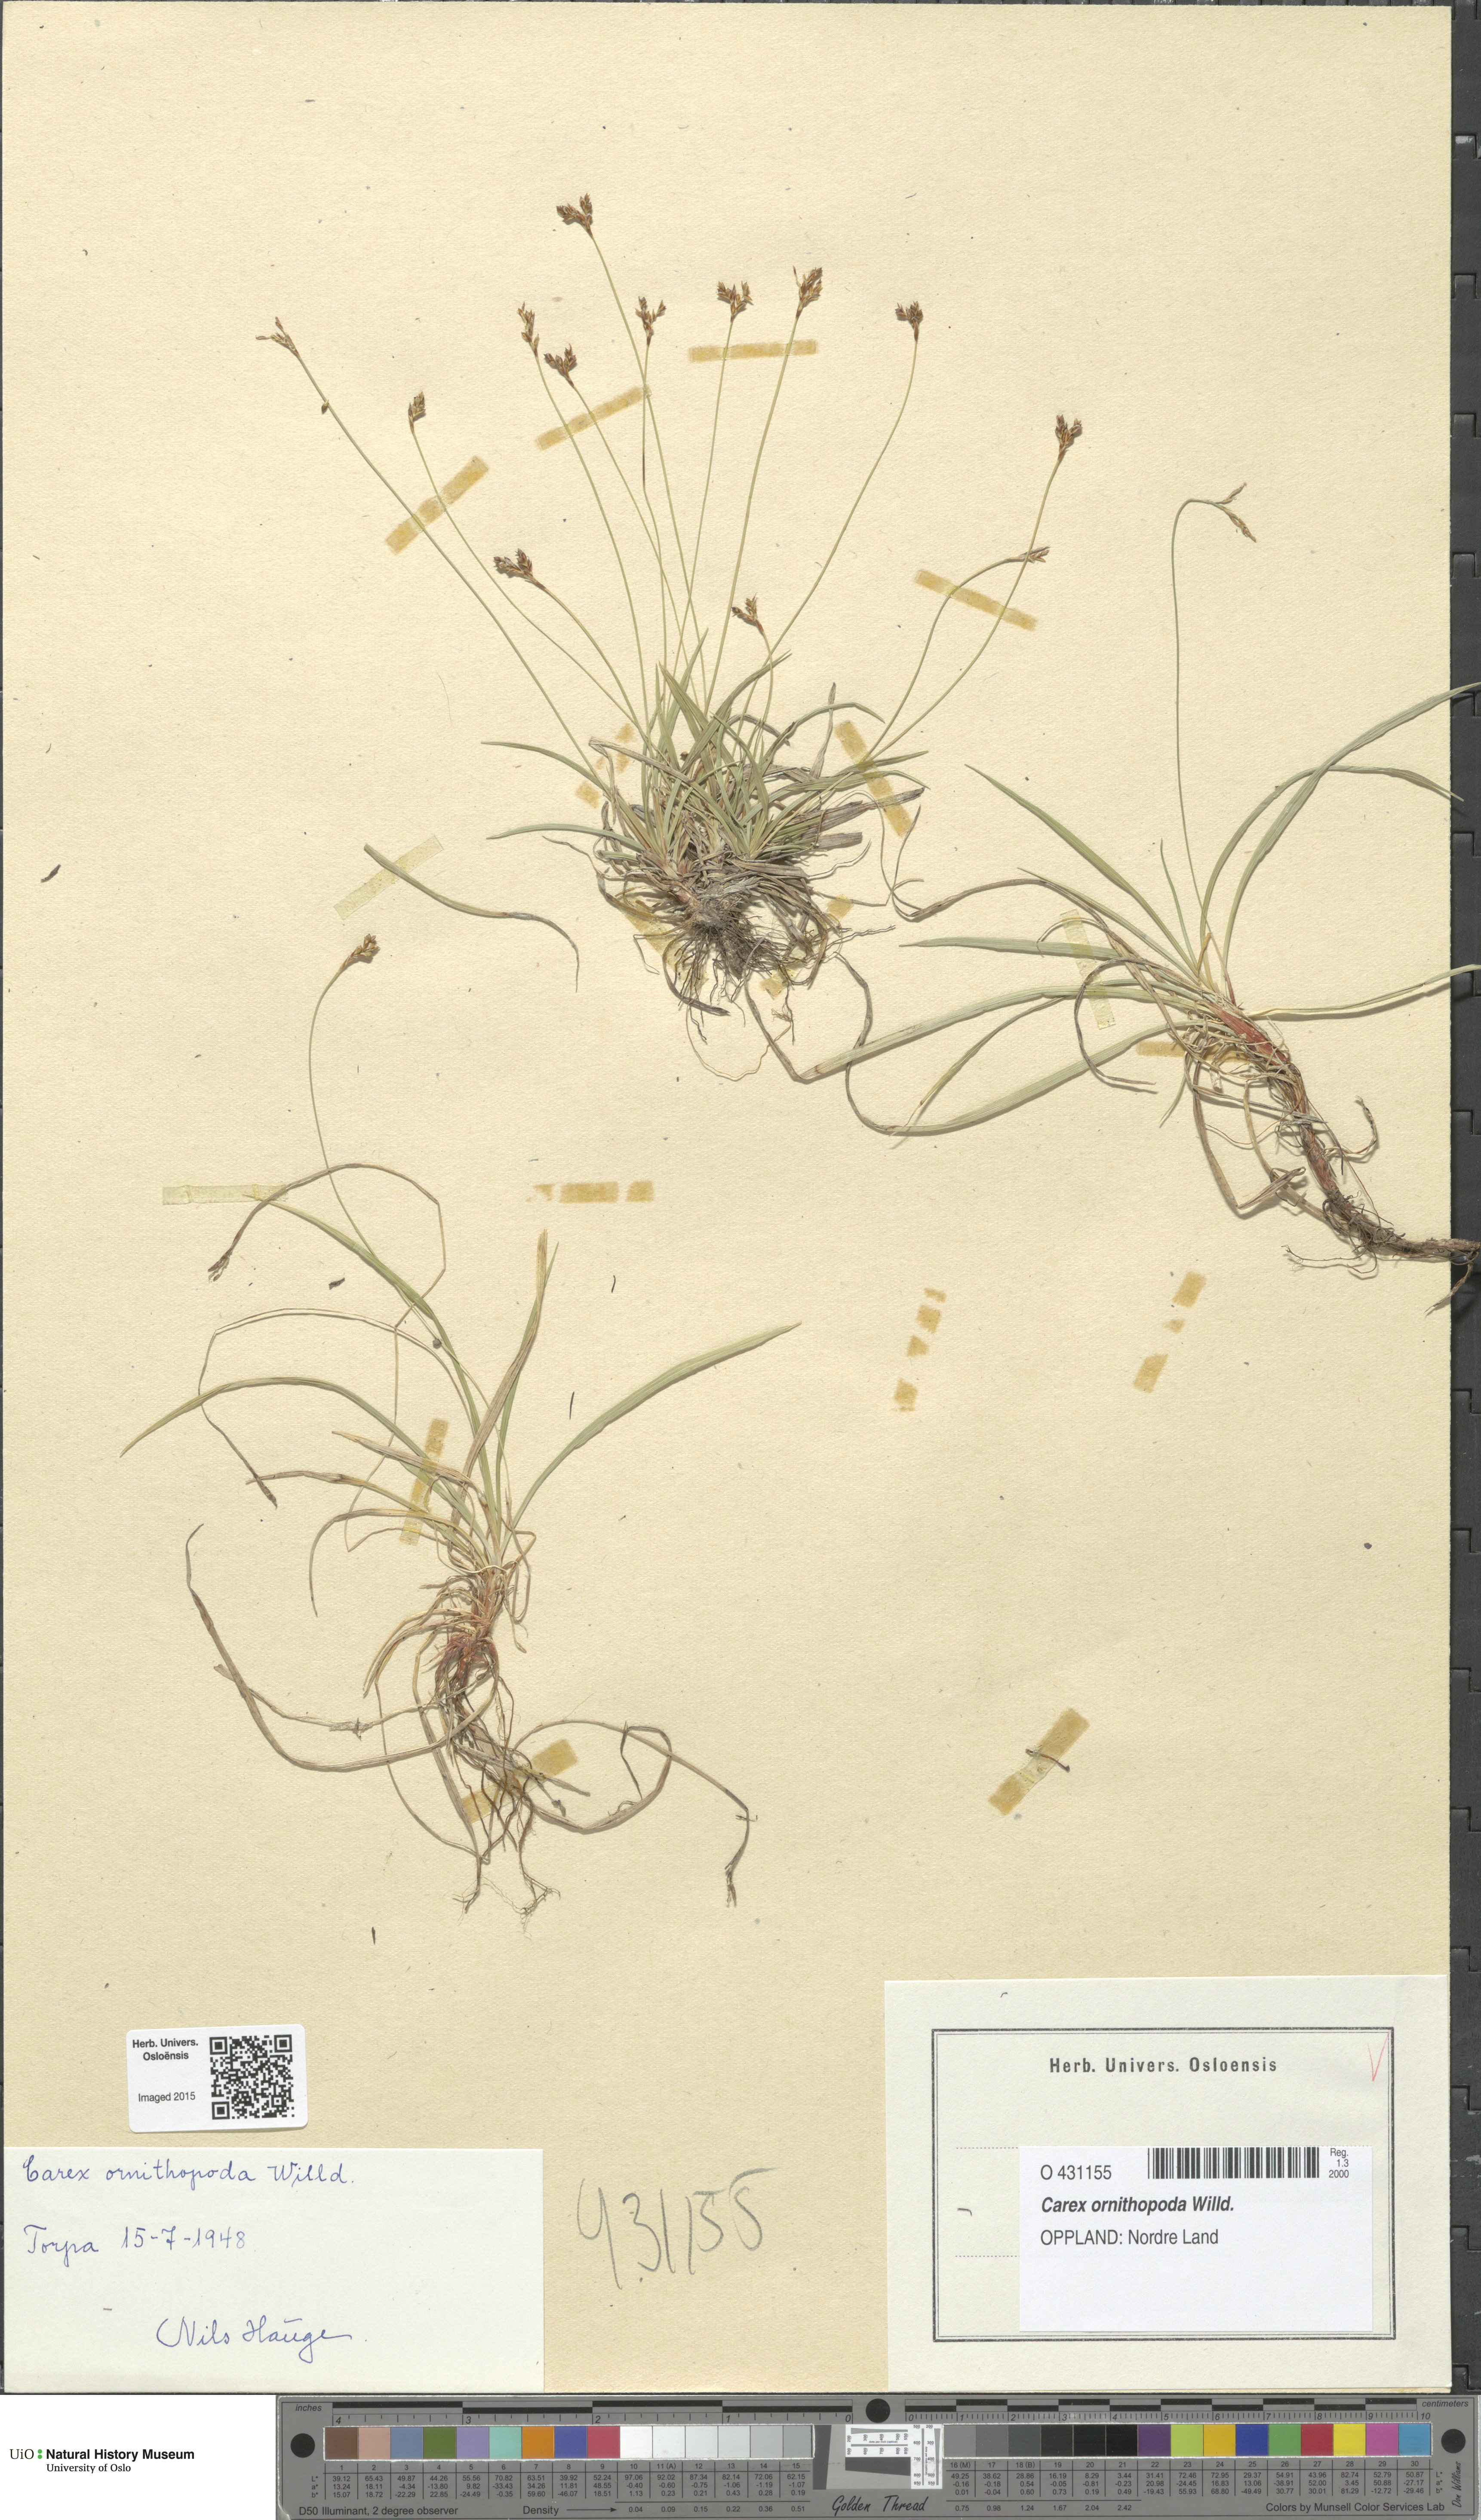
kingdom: Plantae
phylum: Tracheophyta
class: Liliopsida
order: Poales
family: Cyperaceae
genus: Carex
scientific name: Carex ornithopoda
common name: Bird's-foot sedge
